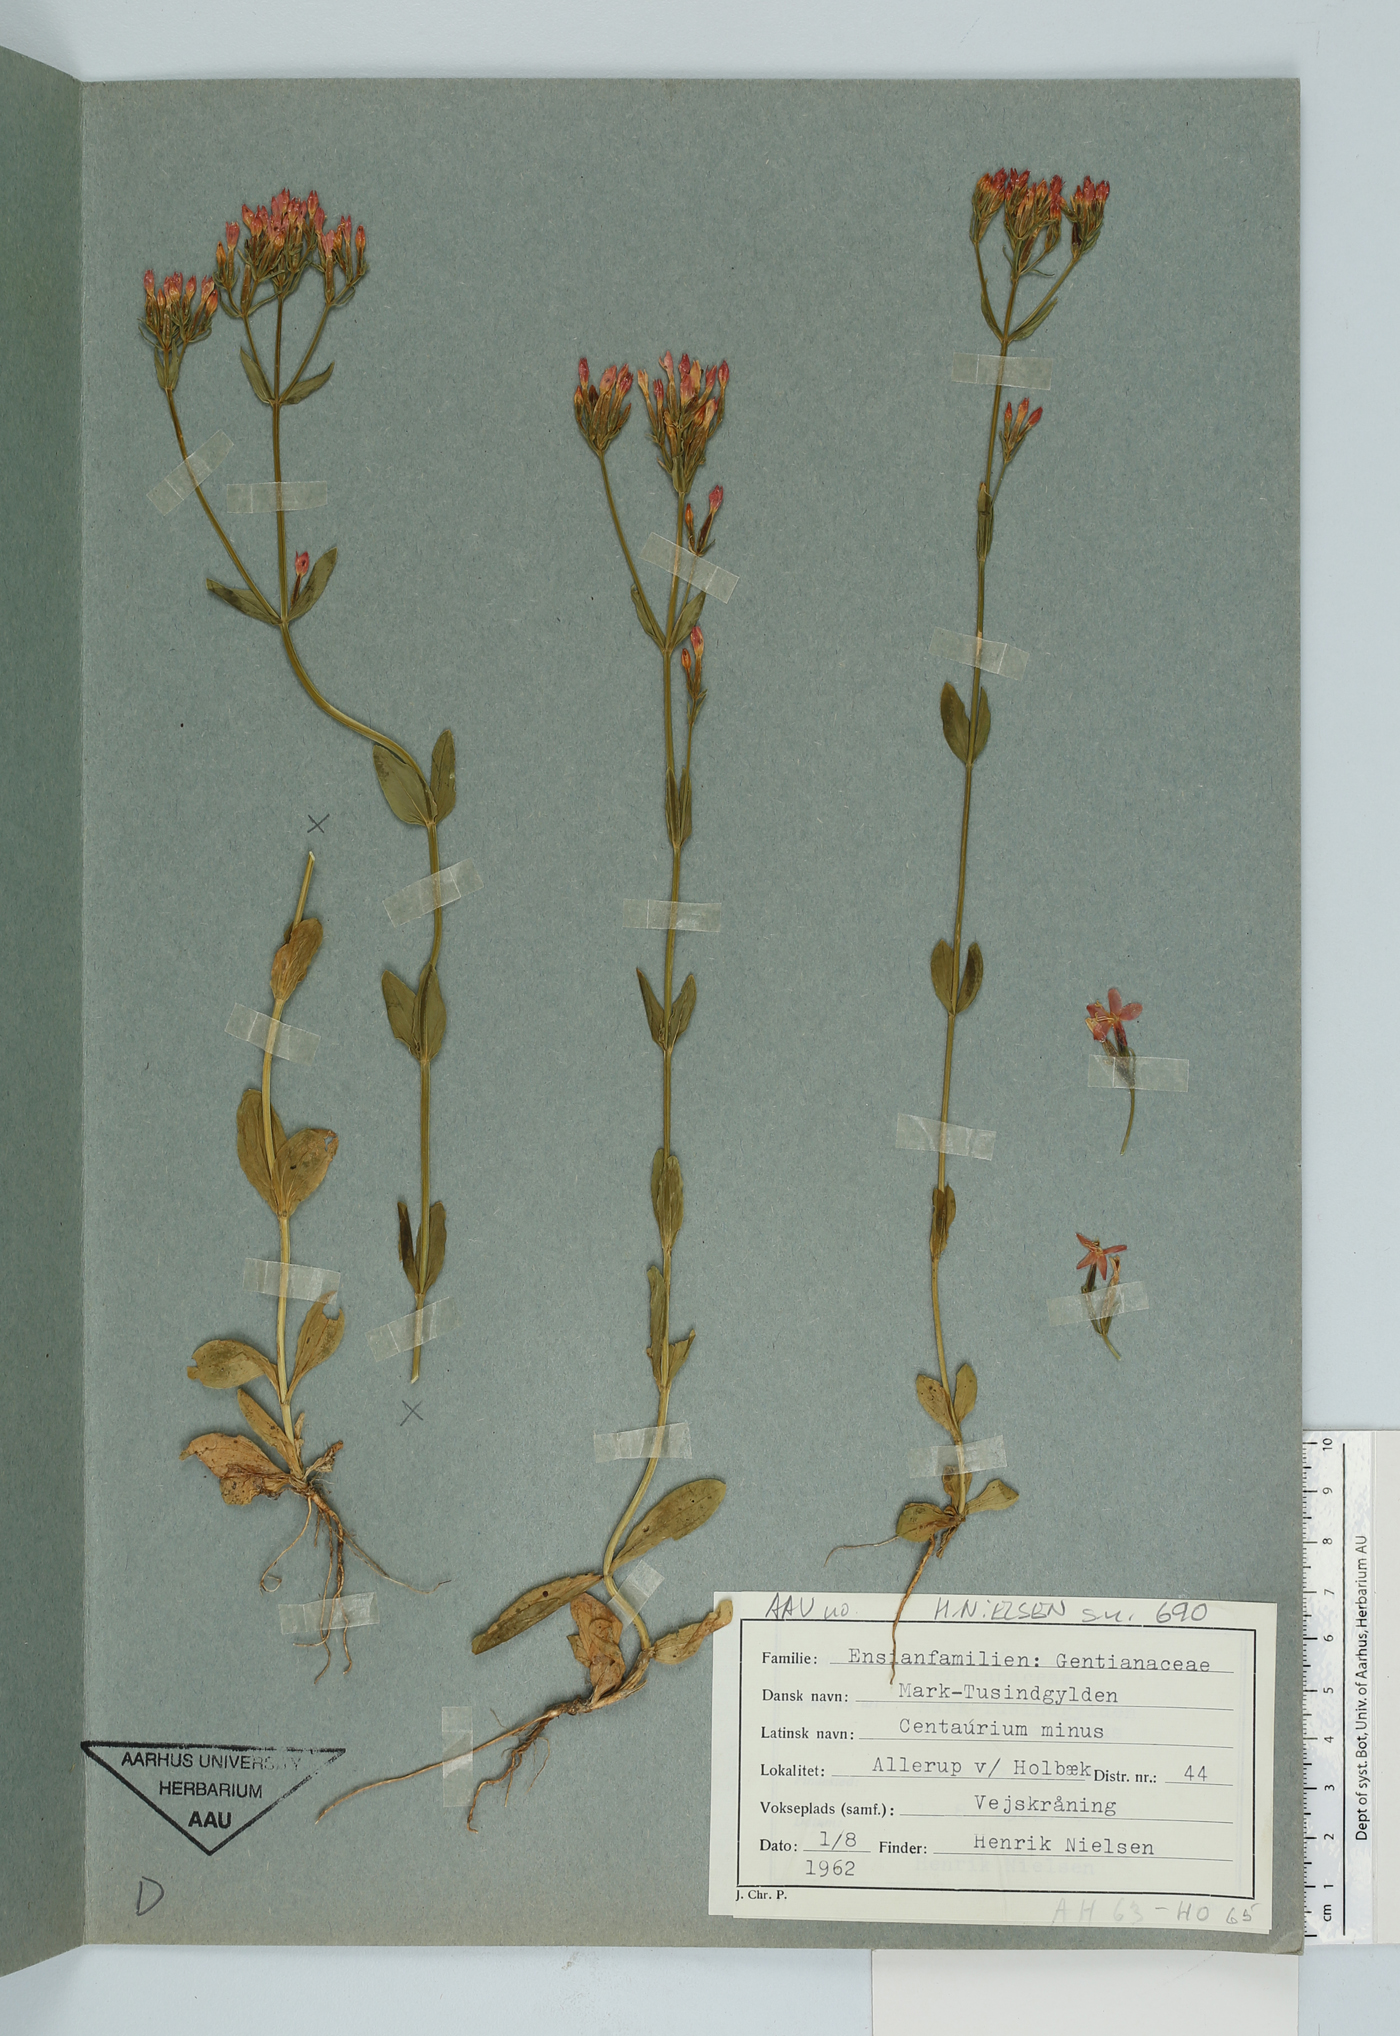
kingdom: Plantae
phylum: Tracheophyta
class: Magnoliopsida
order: Gentianales
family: Gentianaceae
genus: Centaurium
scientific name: Centaurium erythraea
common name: Common centaury
